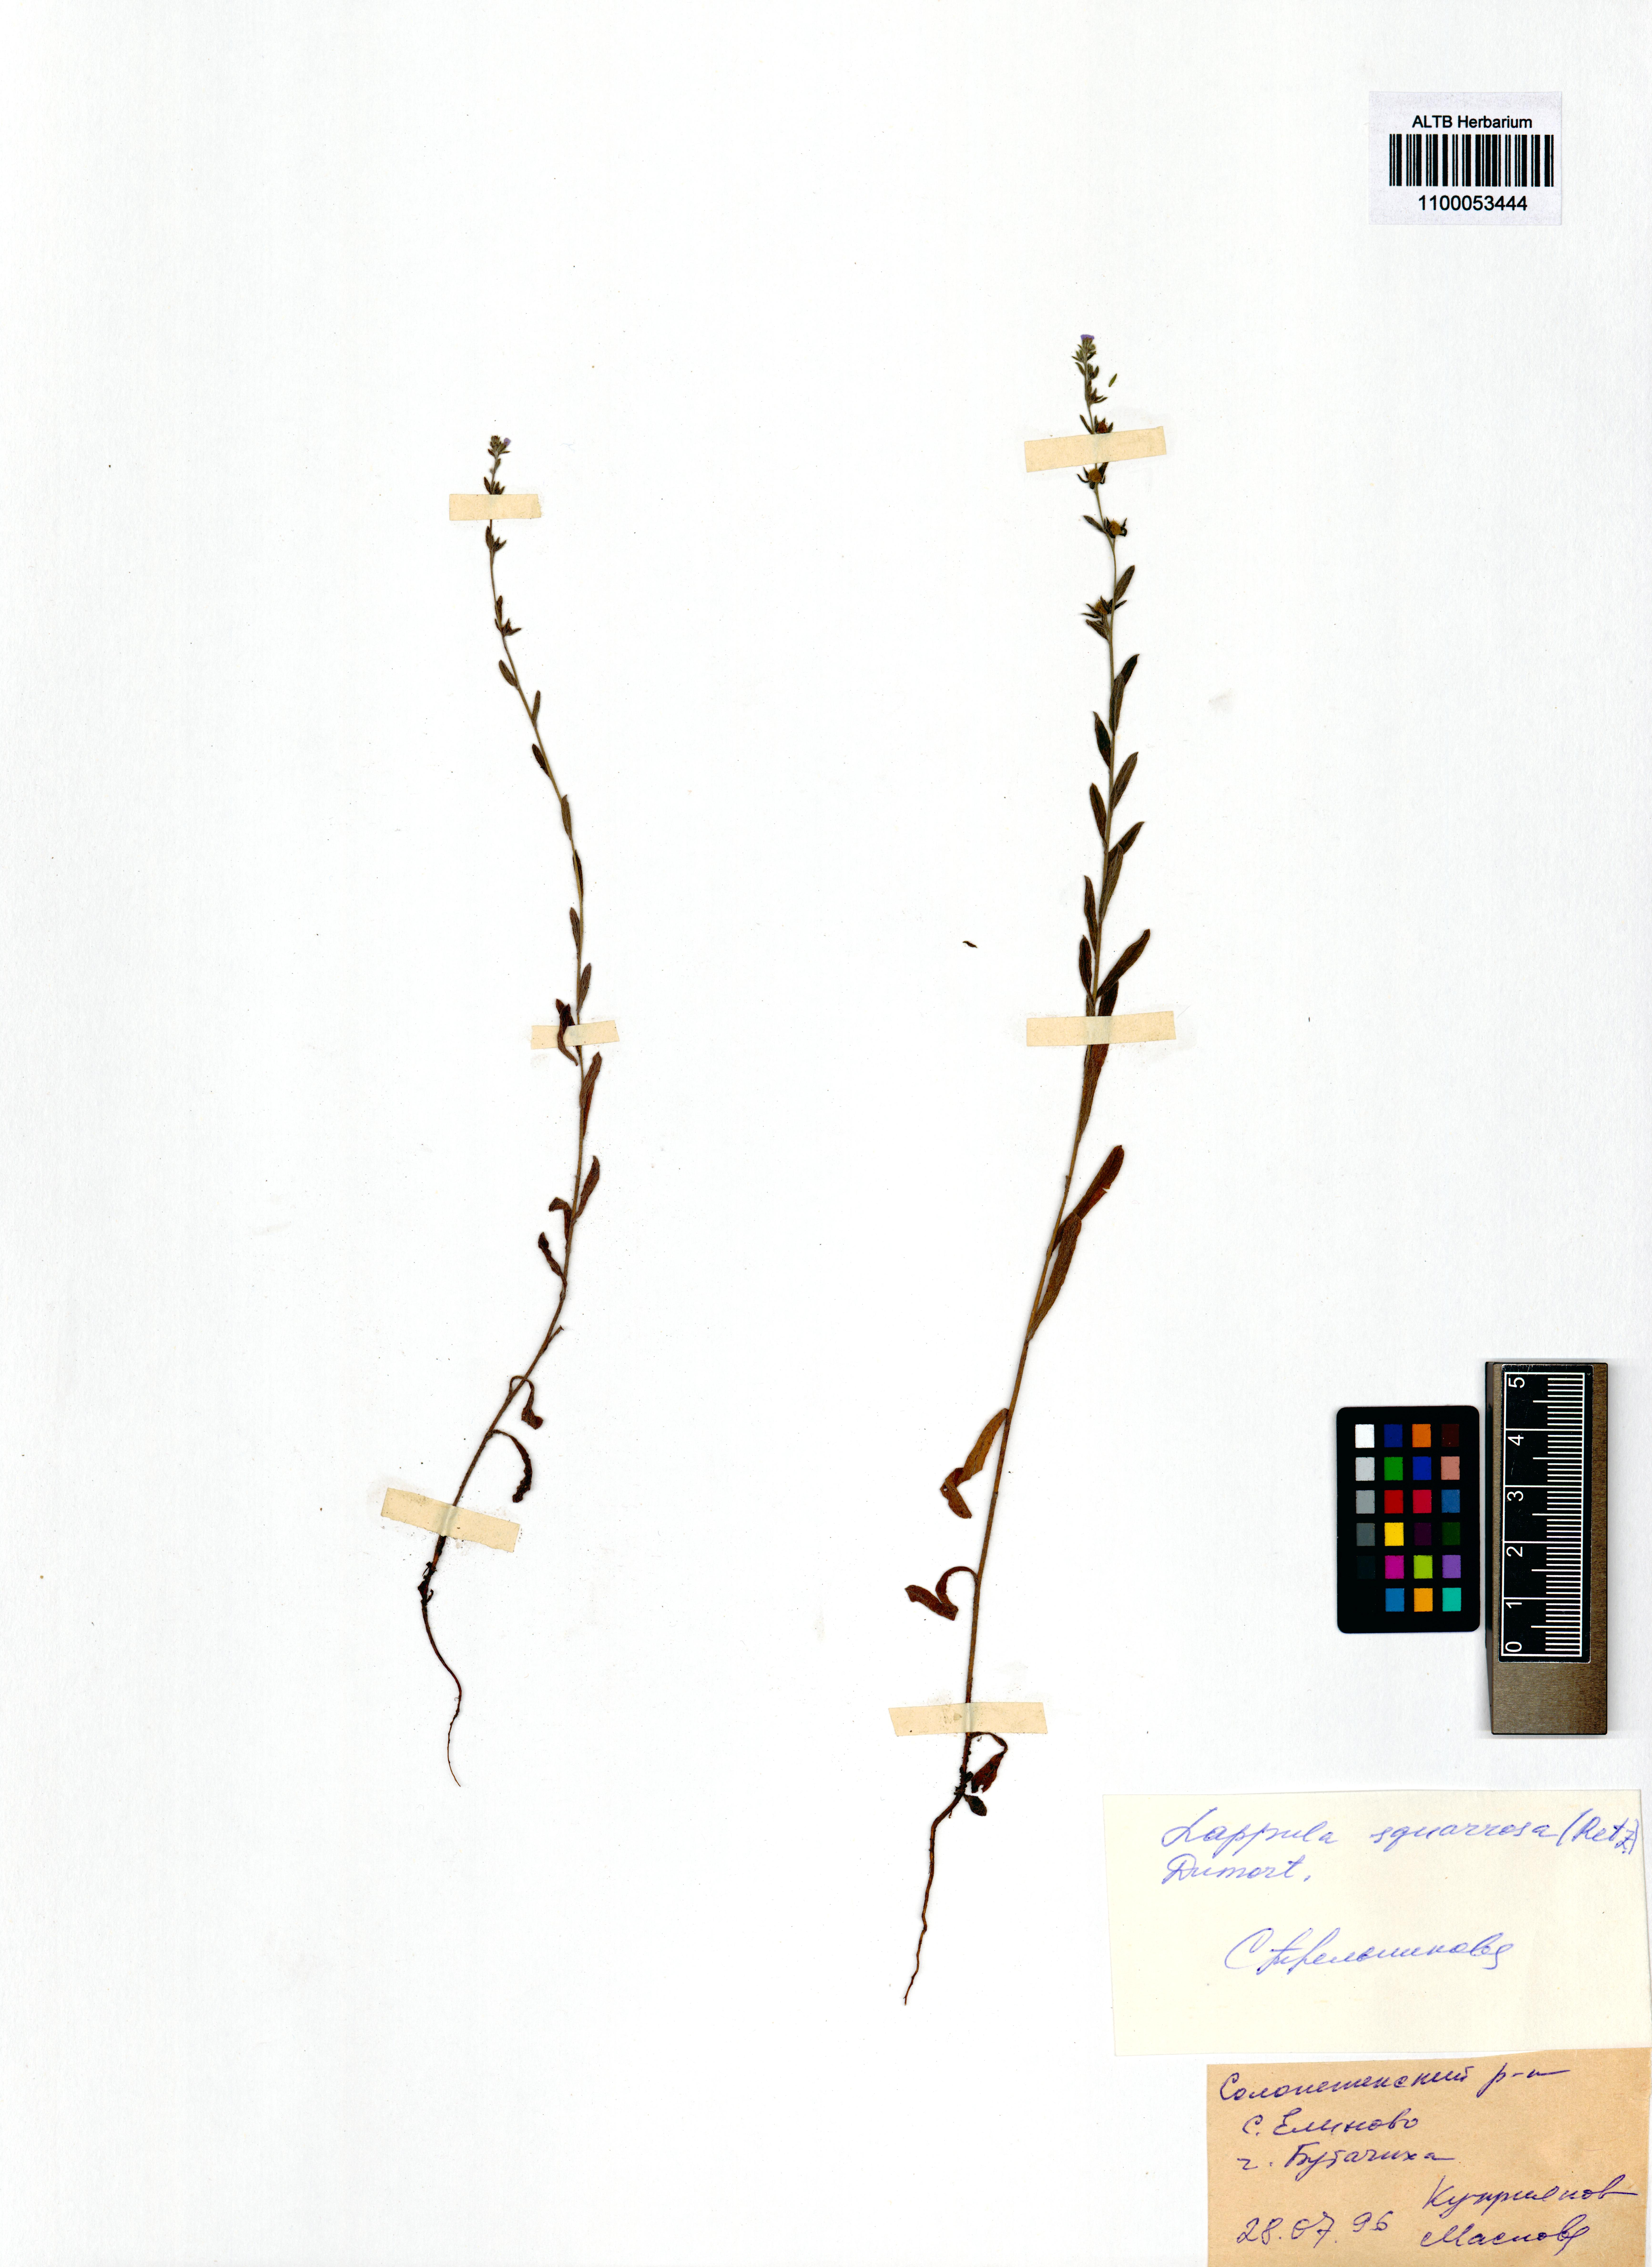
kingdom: Plantae
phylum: Tracheophyta
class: Magnoliopsida
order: Boraginales
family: Boraginaceae
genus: Lappula
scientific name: Lappula squarrosa
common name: European stickseed
